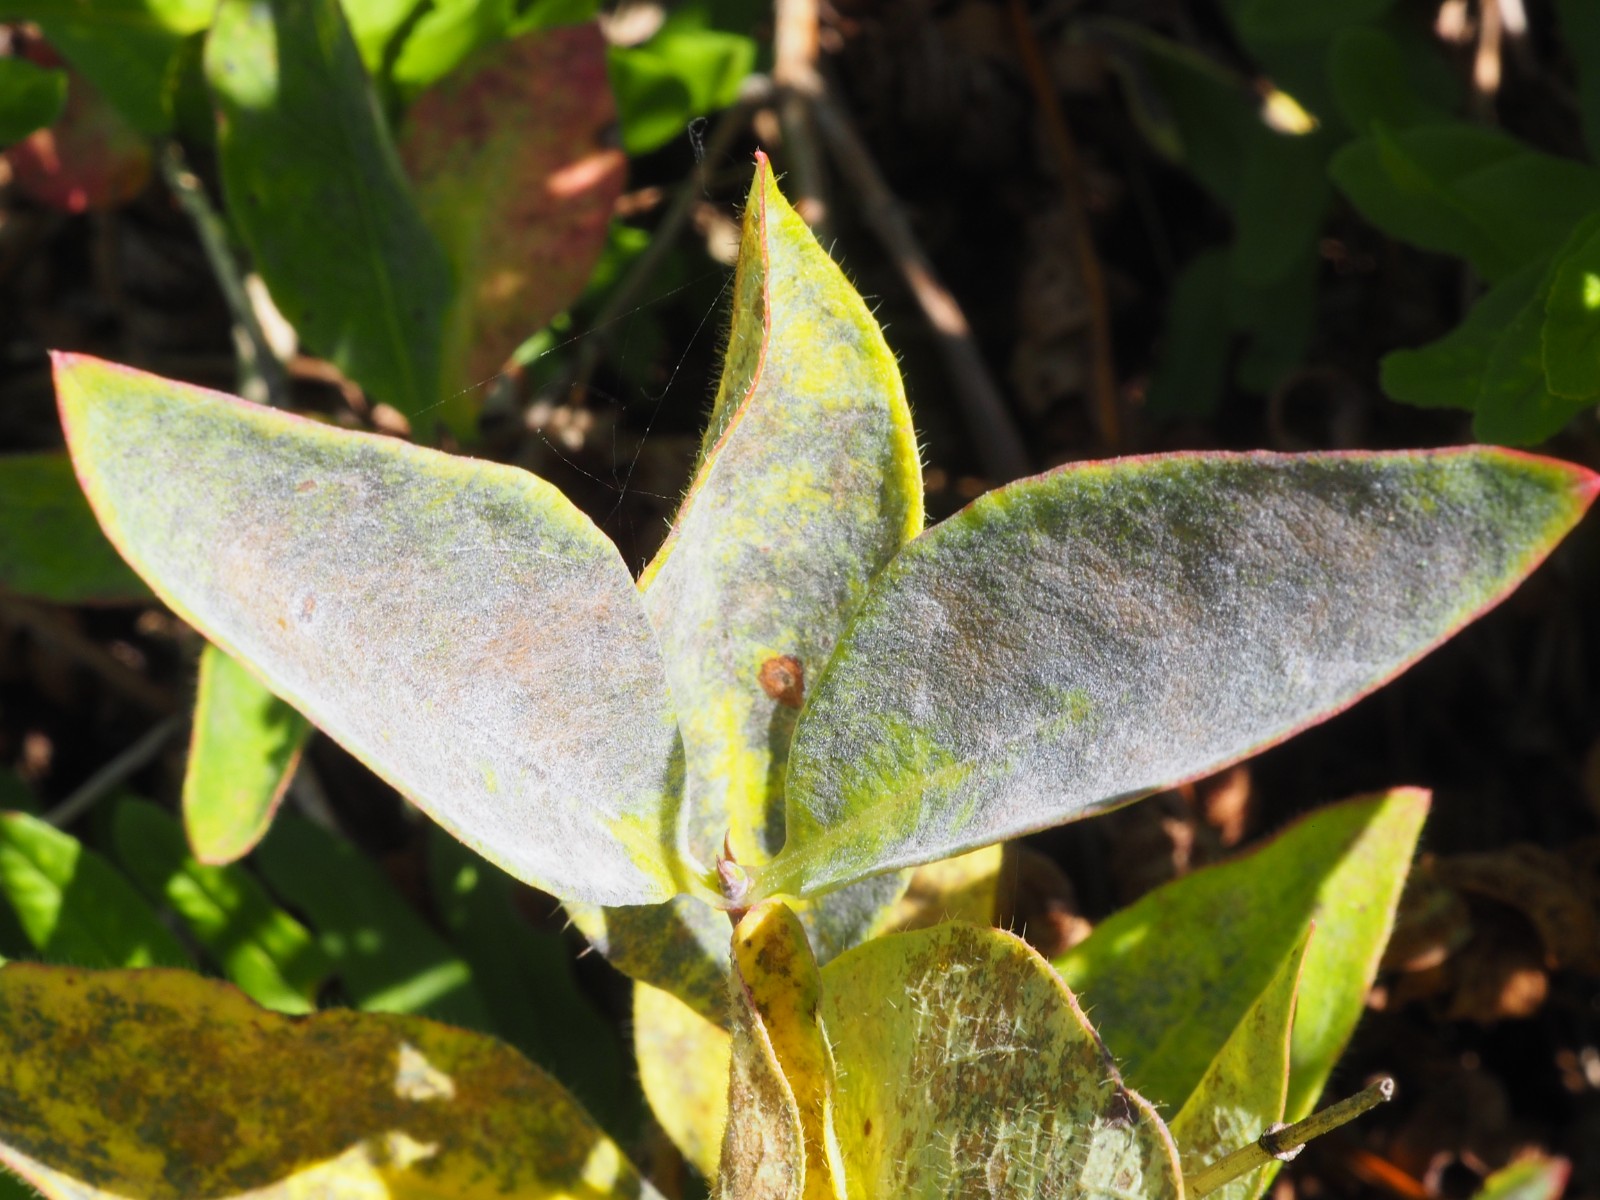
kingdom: Fungi
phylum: Ascomycota
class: Leotiomycetes
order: Helotiales
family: Erysiphaceae
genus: Erysiphe
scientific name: Erysiphe lonicerae
